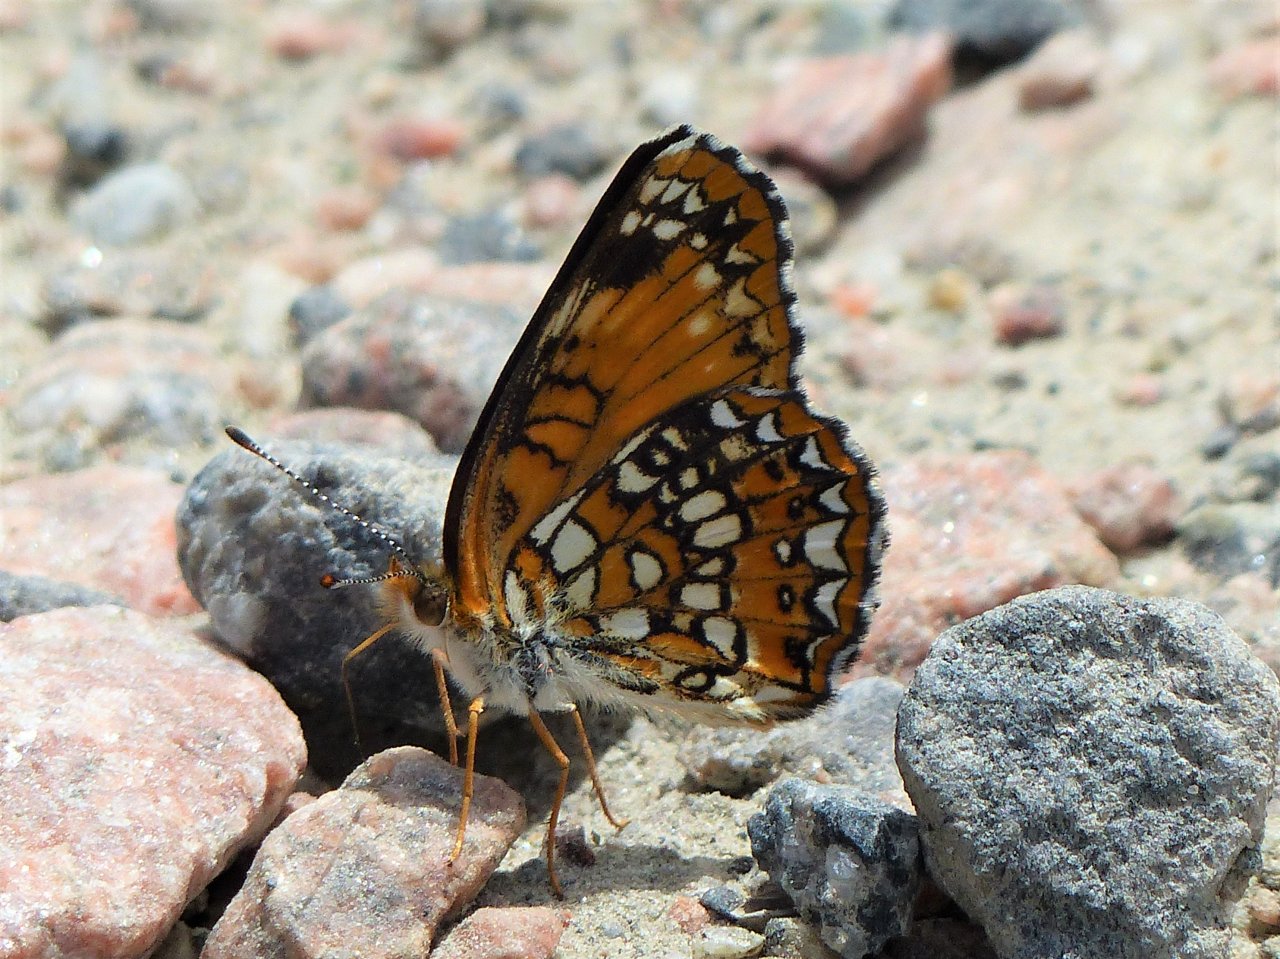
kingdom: Animalia
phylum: Arthropoda
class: Insecta
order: Lepidoptera
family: Nymphalidae
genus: Chlosyne
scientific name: Chlosyne harrisii
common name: Harris's Checkerspot
